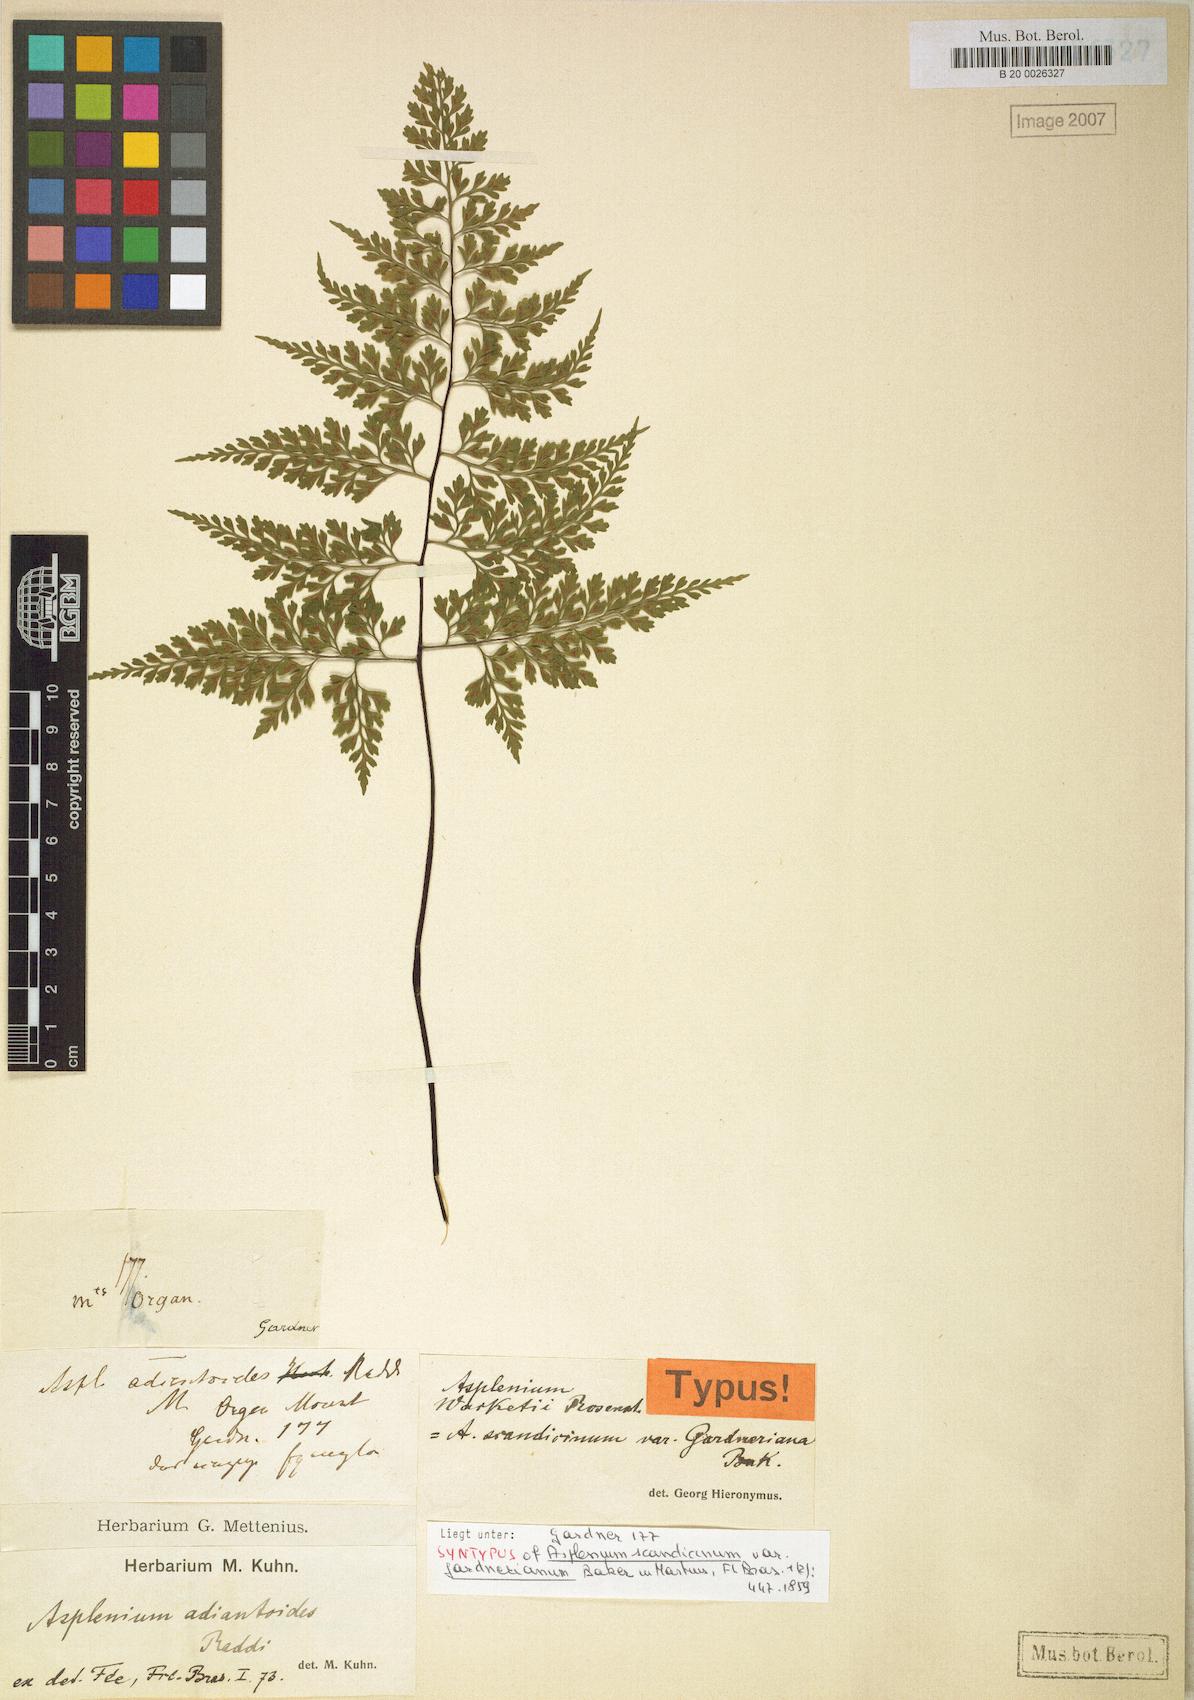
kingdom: Plantae
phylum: Tracheophyta
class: Polypodiopsida
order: Polypodiales
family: Aspleniaceae
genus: Asplenium
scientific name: Asplenium wacketii
